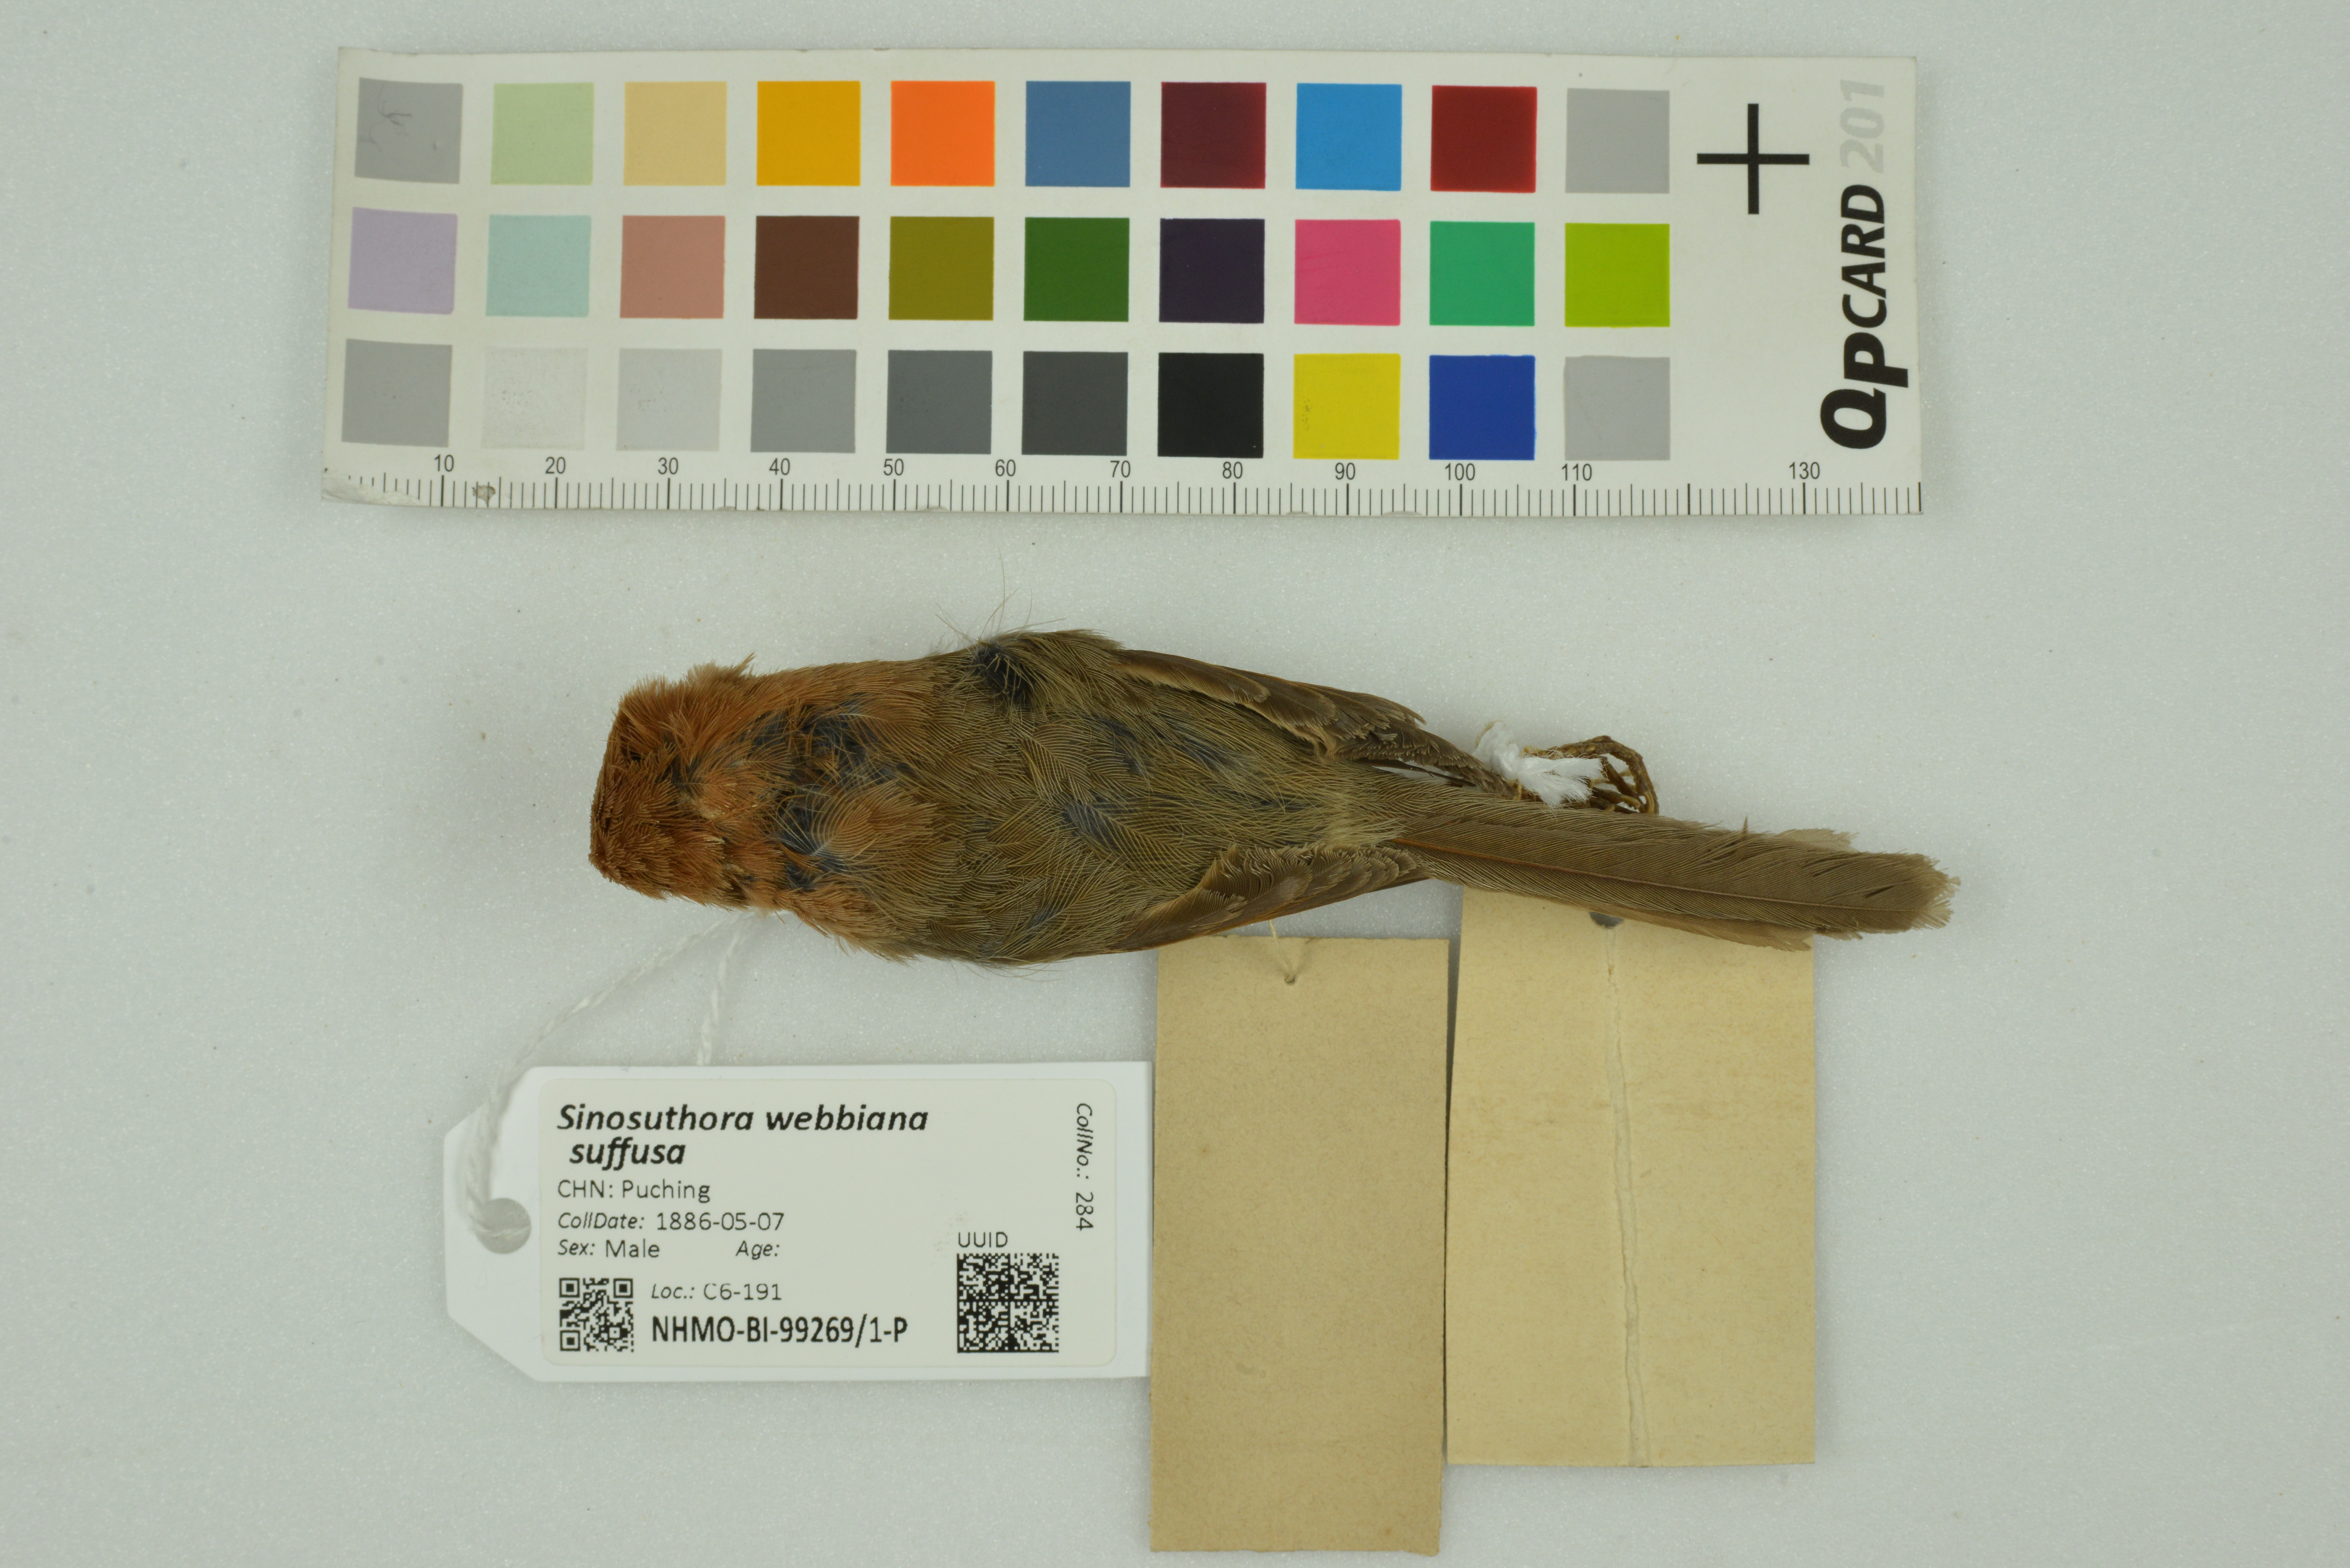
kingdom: Animalia
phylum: Chordata
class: Aves
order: Passeriformes
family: Sylviidae
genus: Sinosuthora
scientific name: Sinosuthora webbiana
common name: Vinous-throated parrotbill
